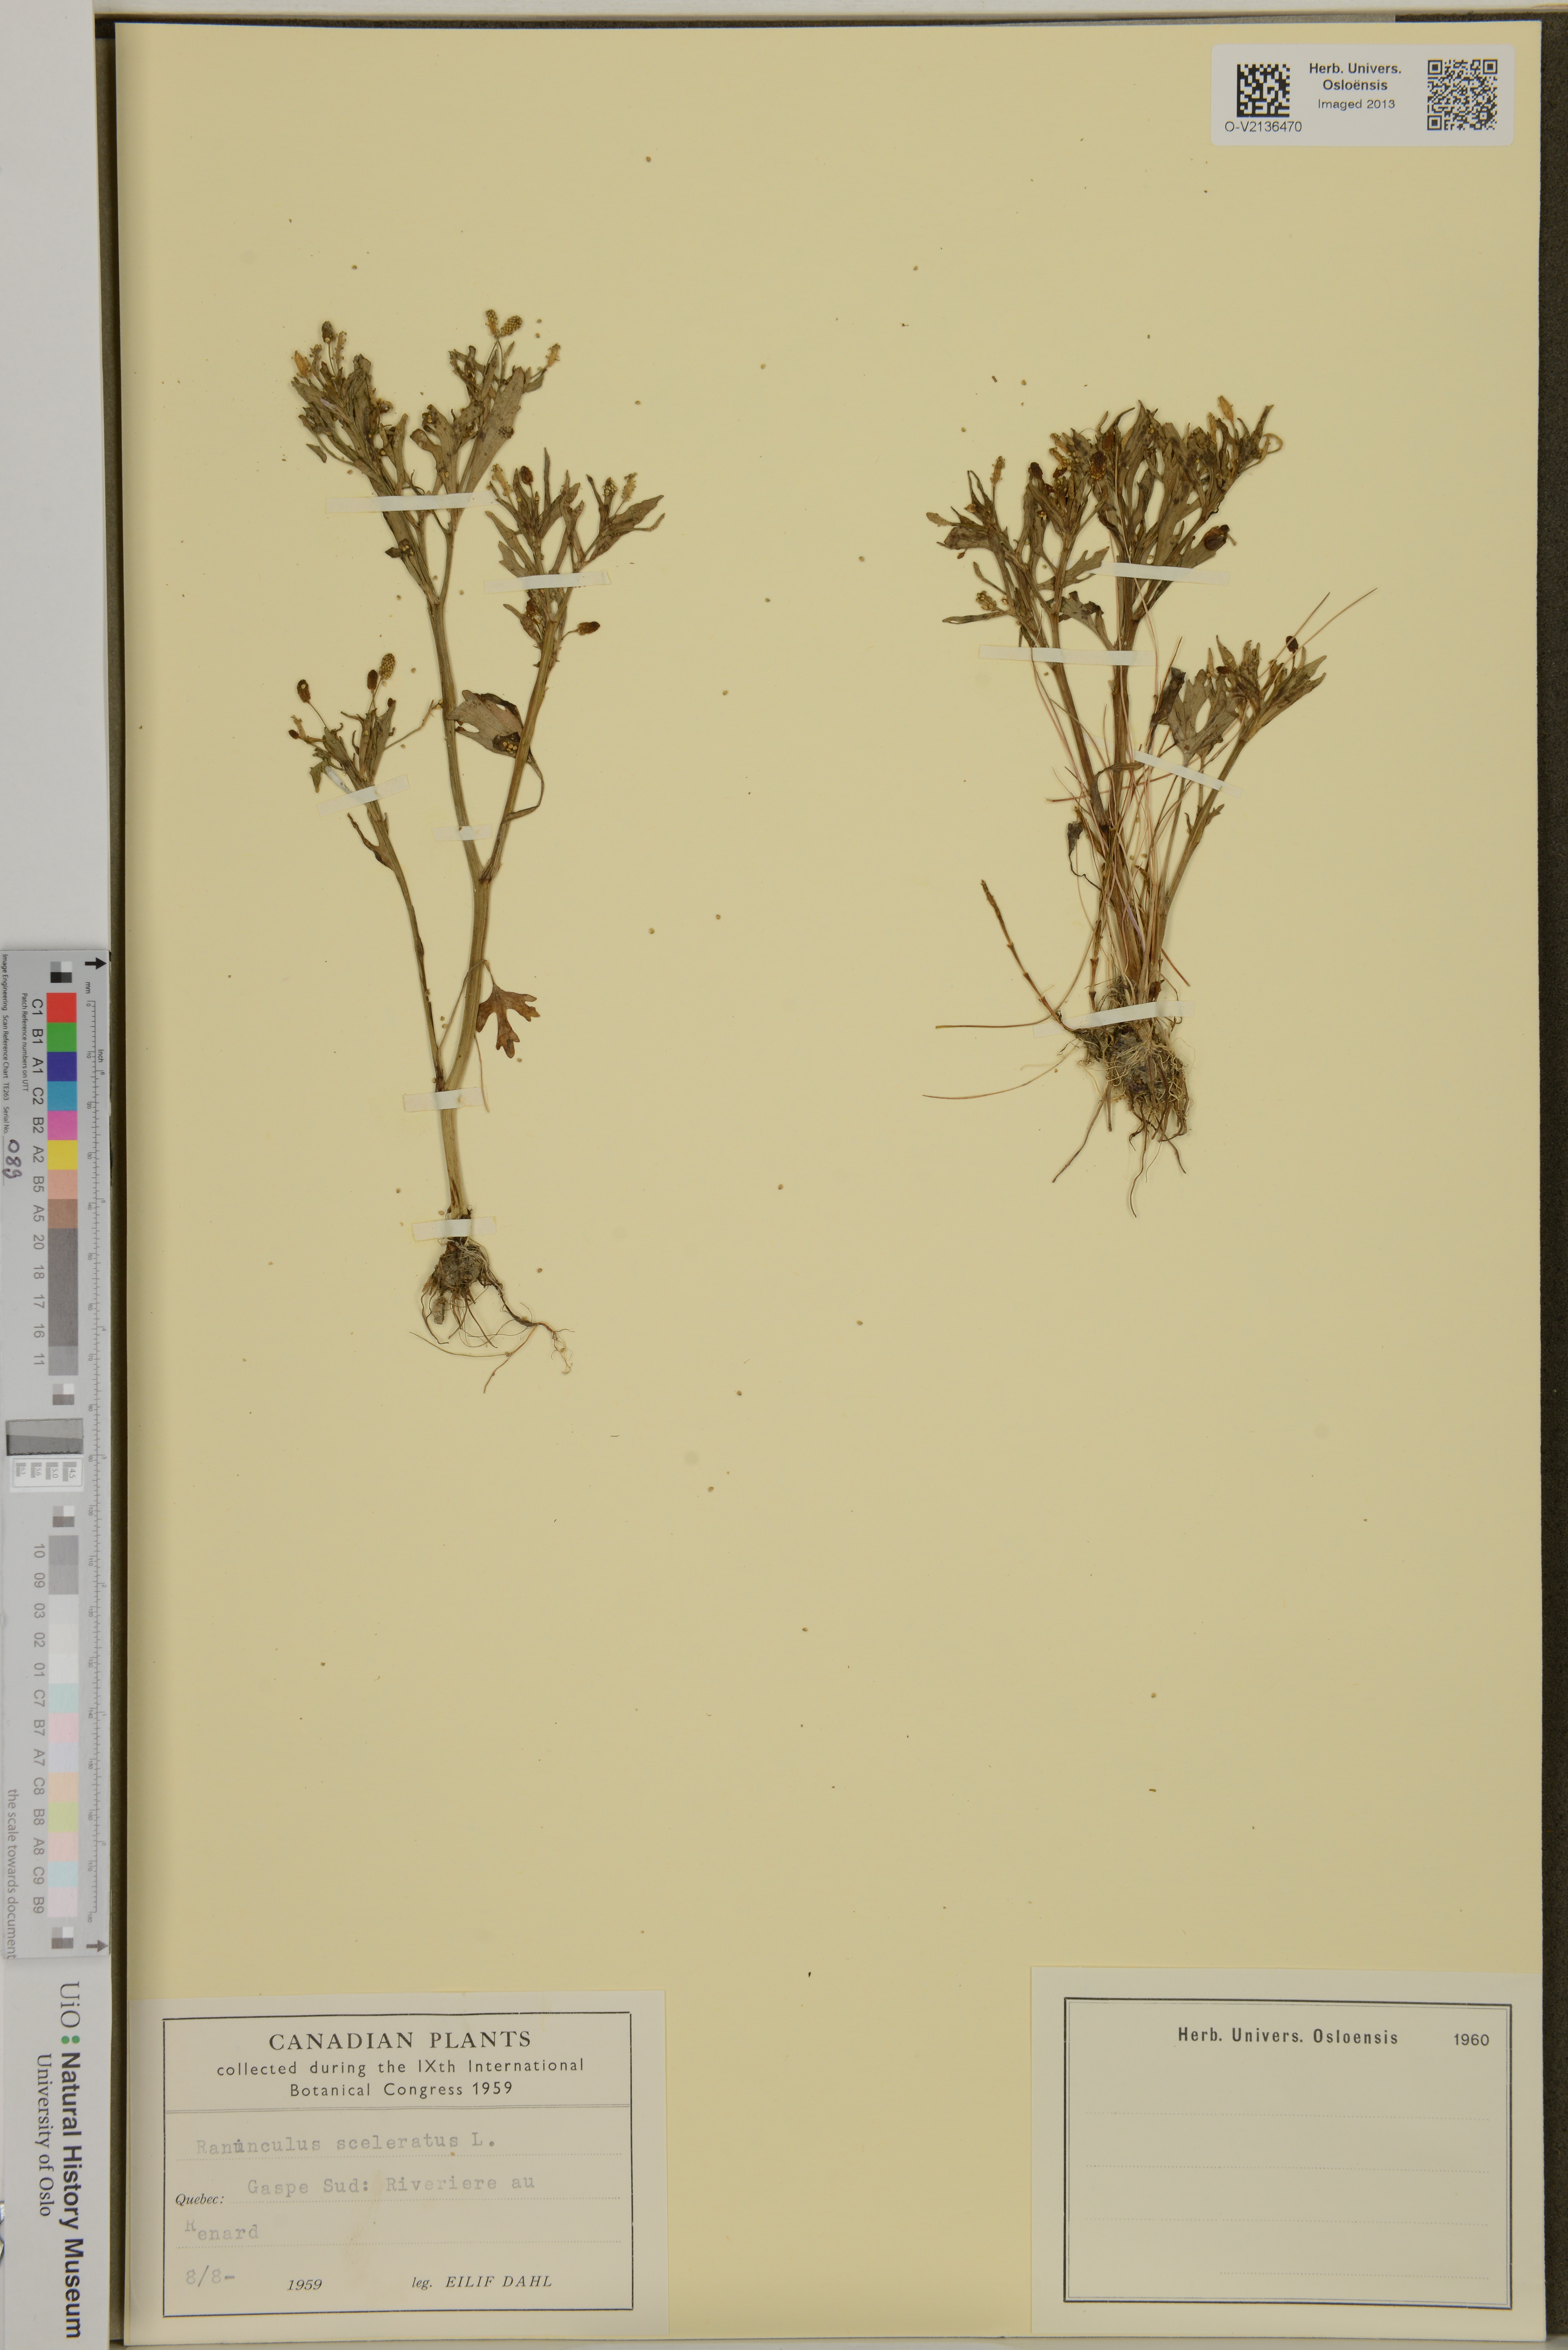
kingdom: Plantae
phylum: Tracheophyta
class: Magnoliopsida
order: Ranunculales
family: Ranunculaceae
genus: Ranunculus
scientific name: Ranunculus sceleratus
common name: Celery-leaved buttercup
